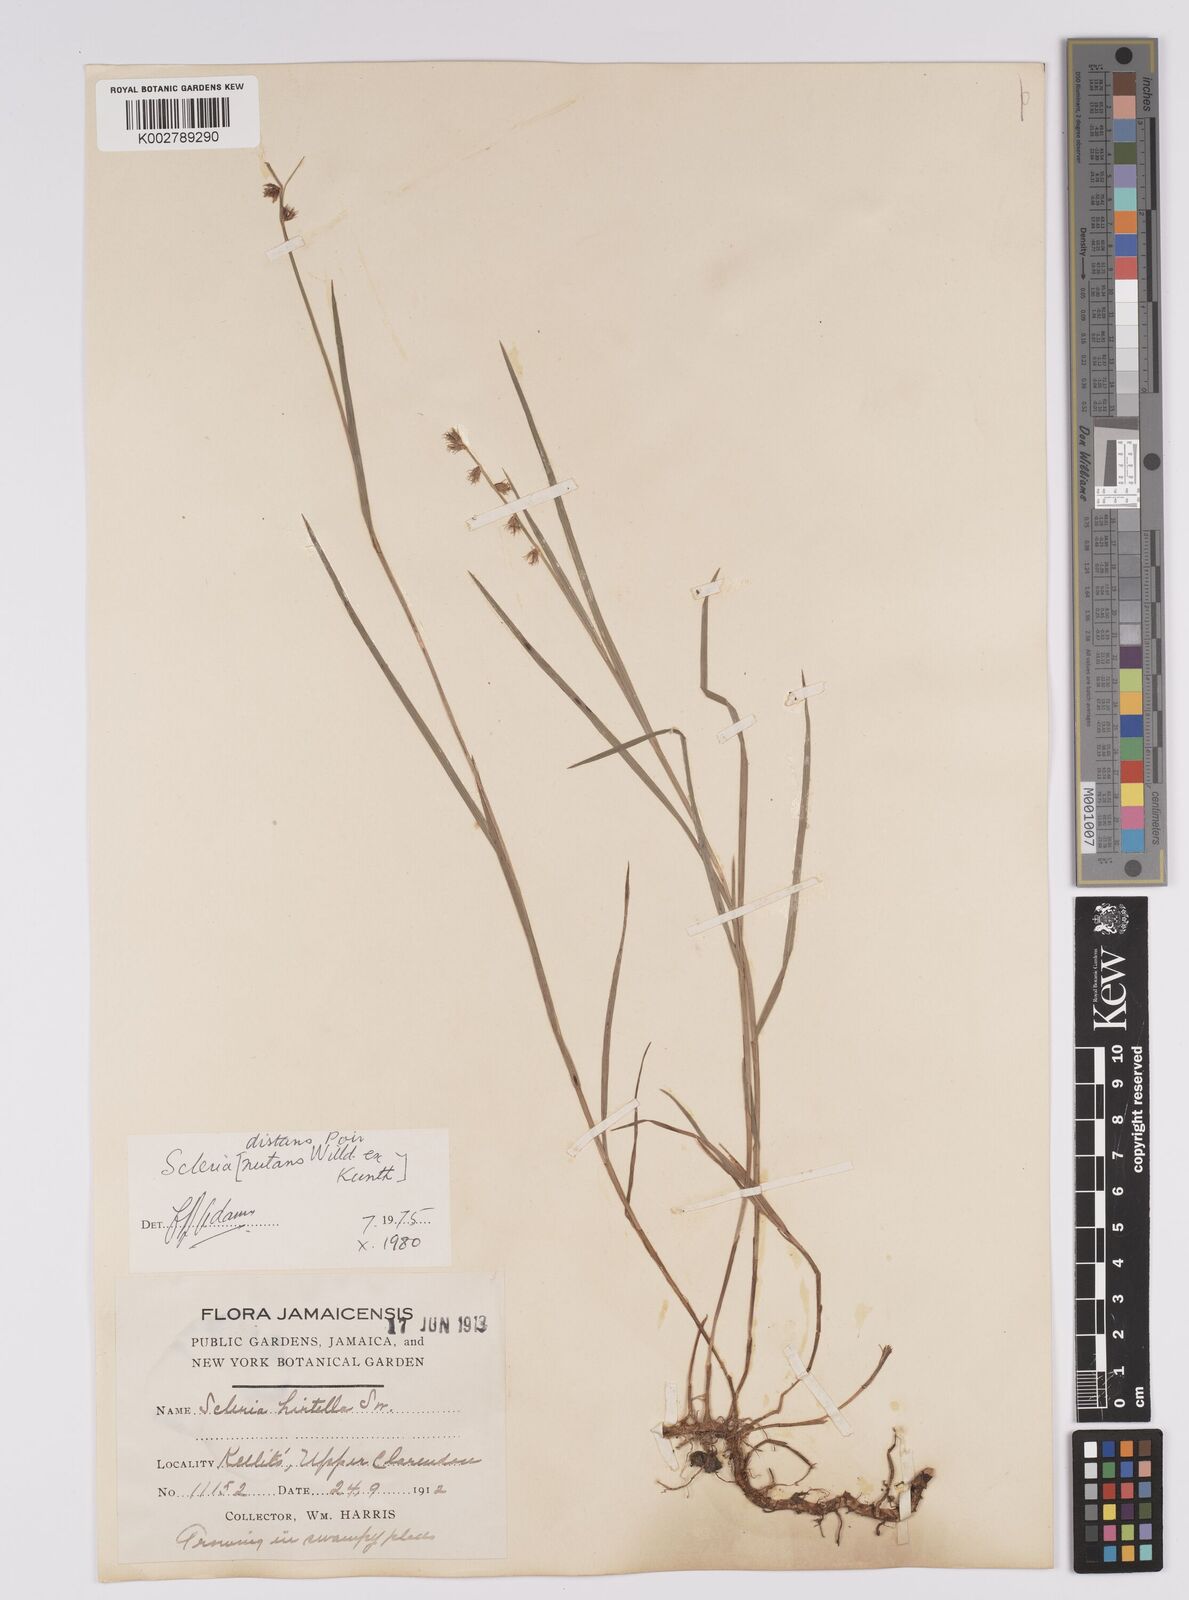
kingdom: Plantae
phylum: Tracheophyta
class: Liliopsida
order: Poales
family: Cyperaceae
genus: Scleria
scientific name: Scleria distans
